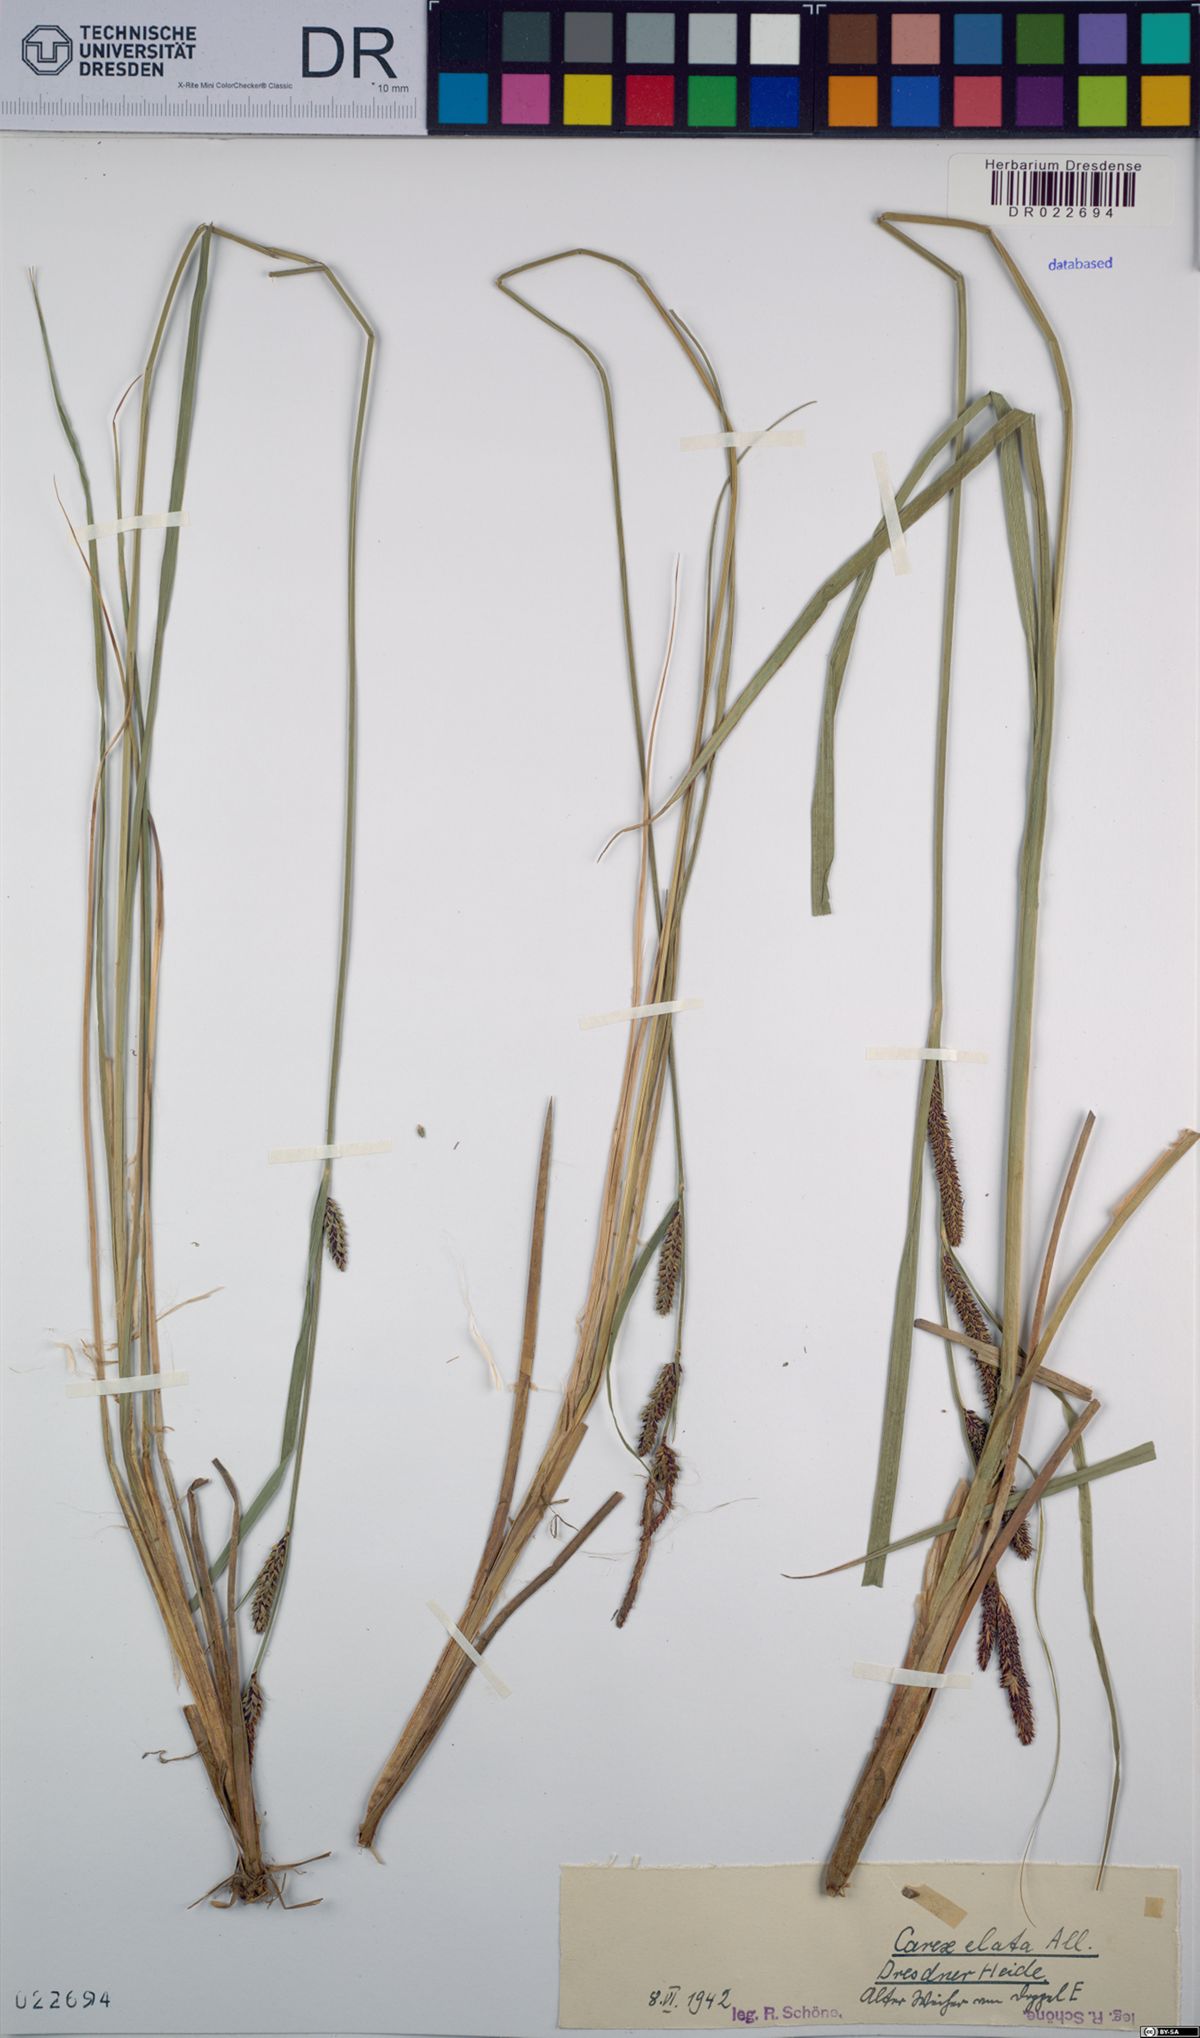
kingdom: Plantae
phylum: Tracheophyta
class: Liliopsida
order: Poales
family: Cyperaceae
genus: Carex
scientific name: Carex elata
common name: Tufted sedge
